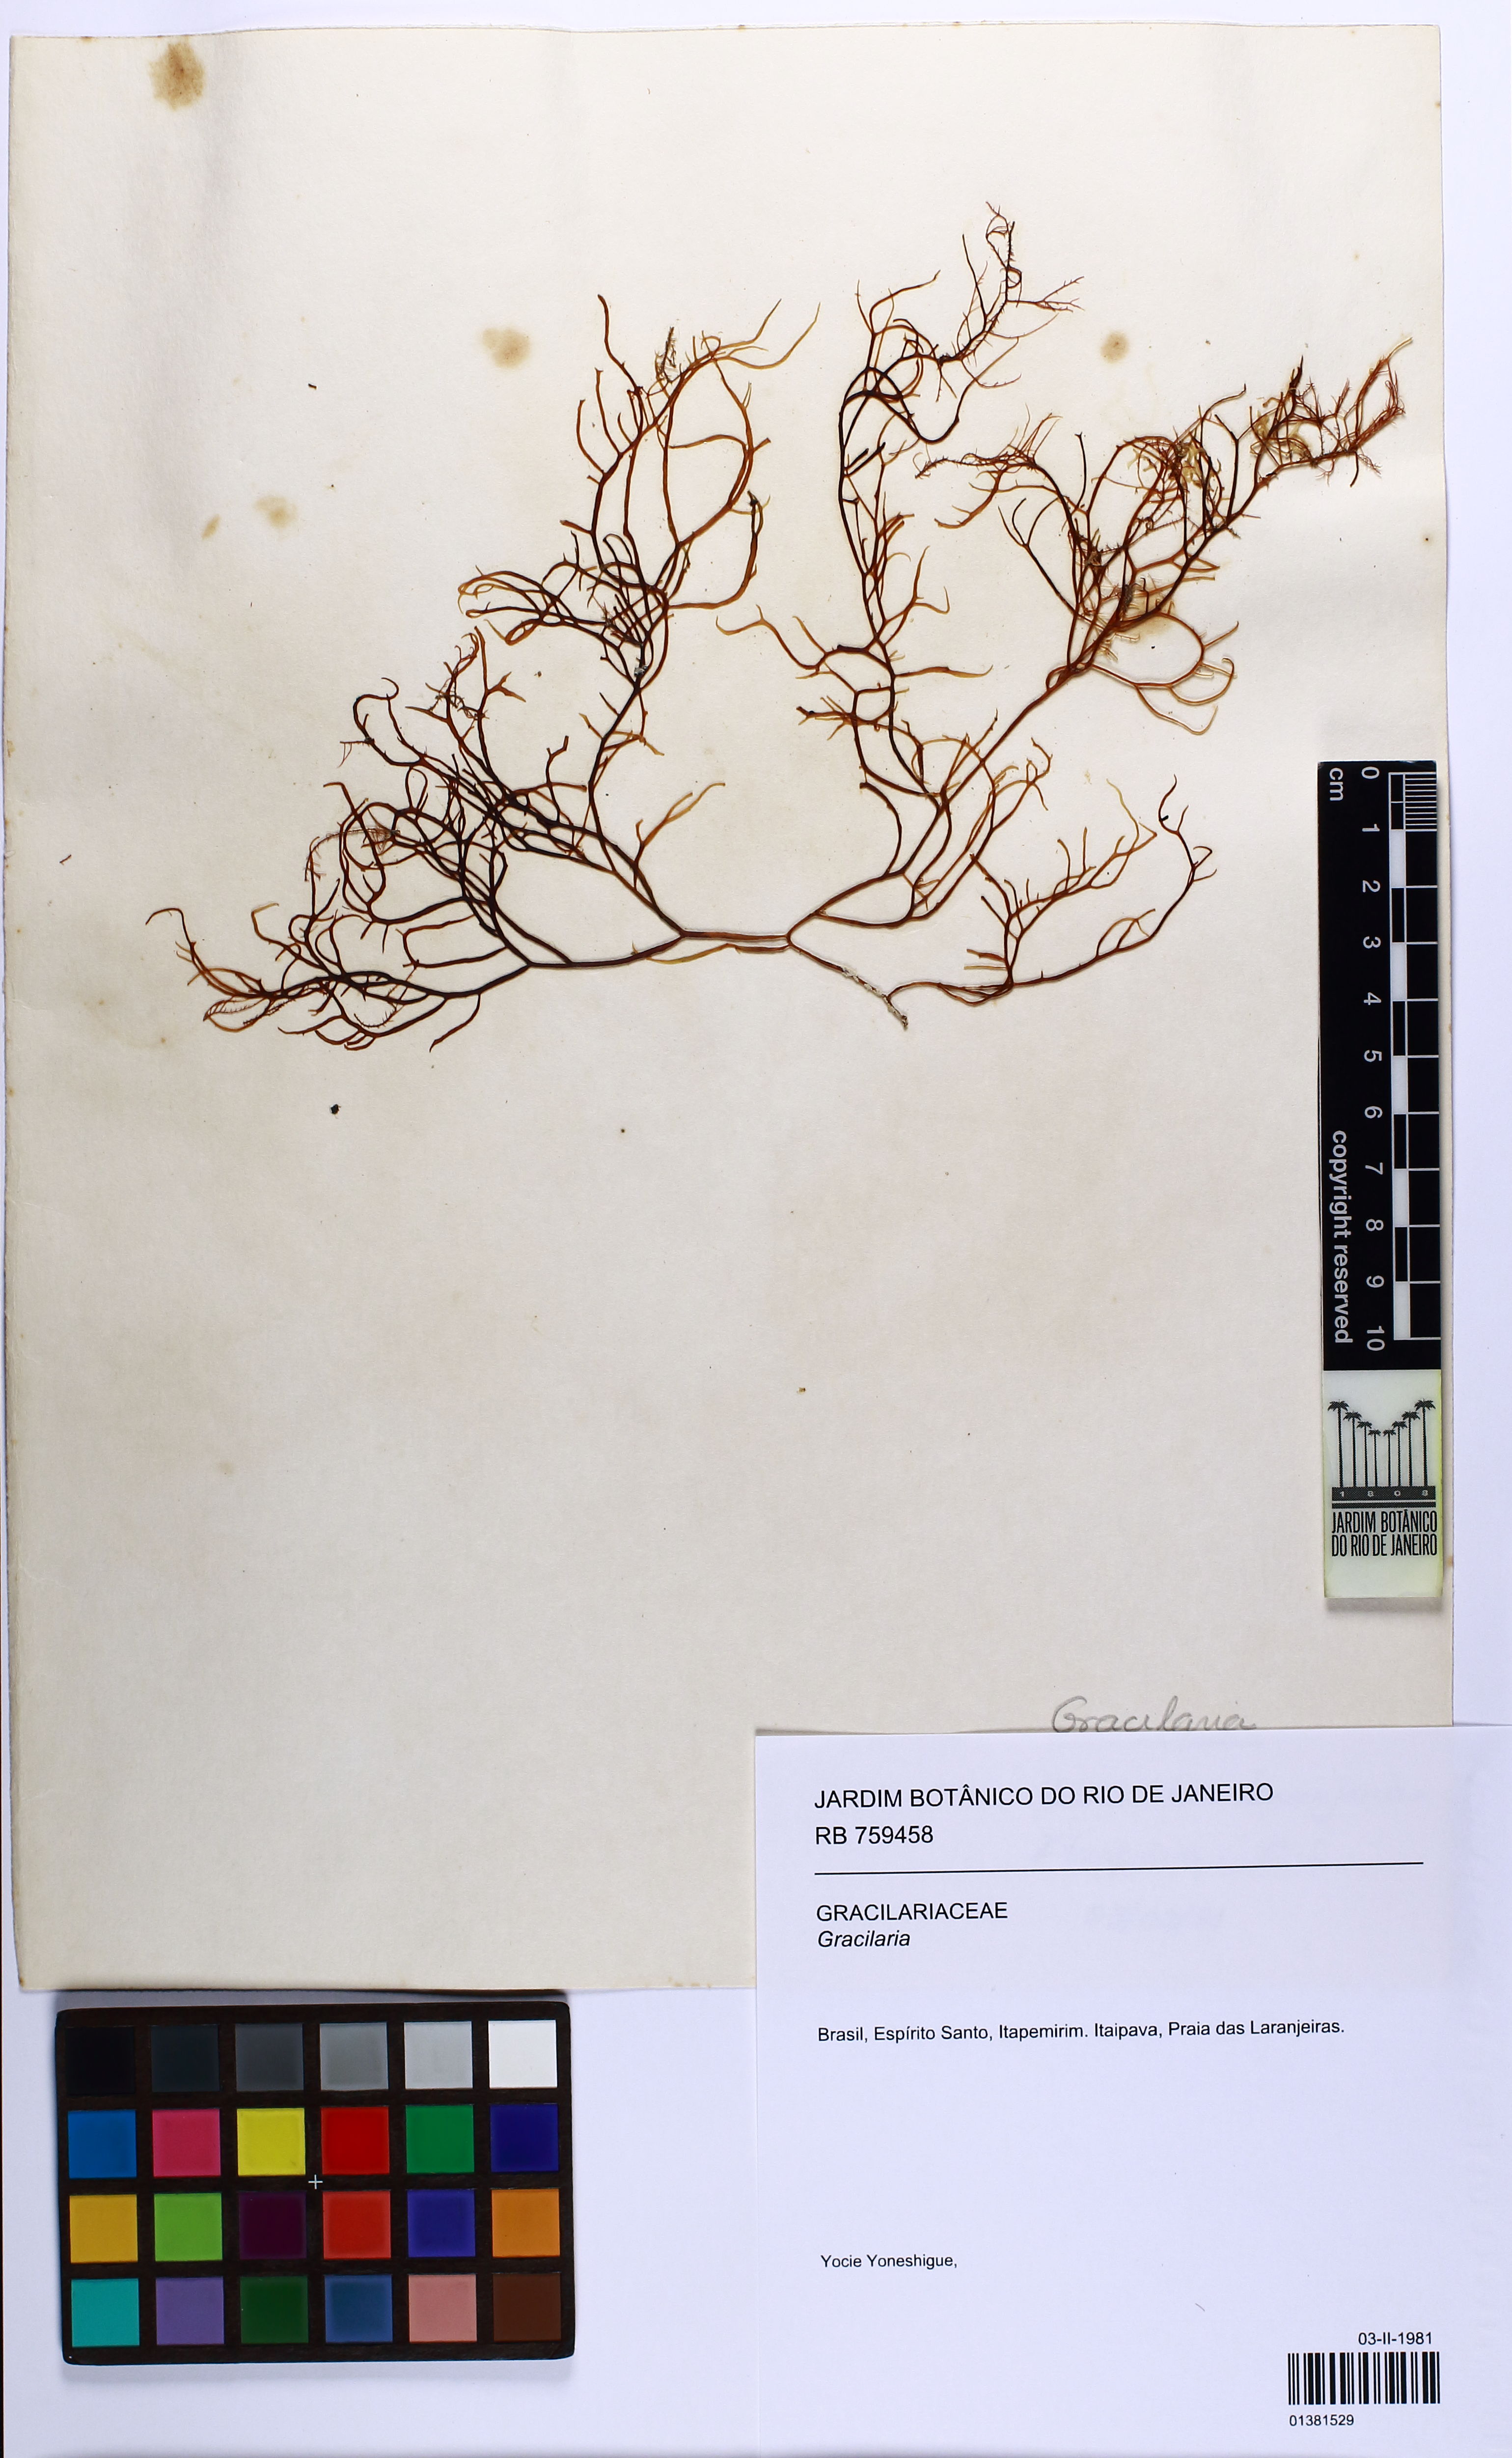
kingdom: Plantae
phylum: Rhodophyta
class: Florideophyceae
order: Gracilariales
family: Gracilariaceae
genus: Gracilaria
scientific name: Gracilaria
